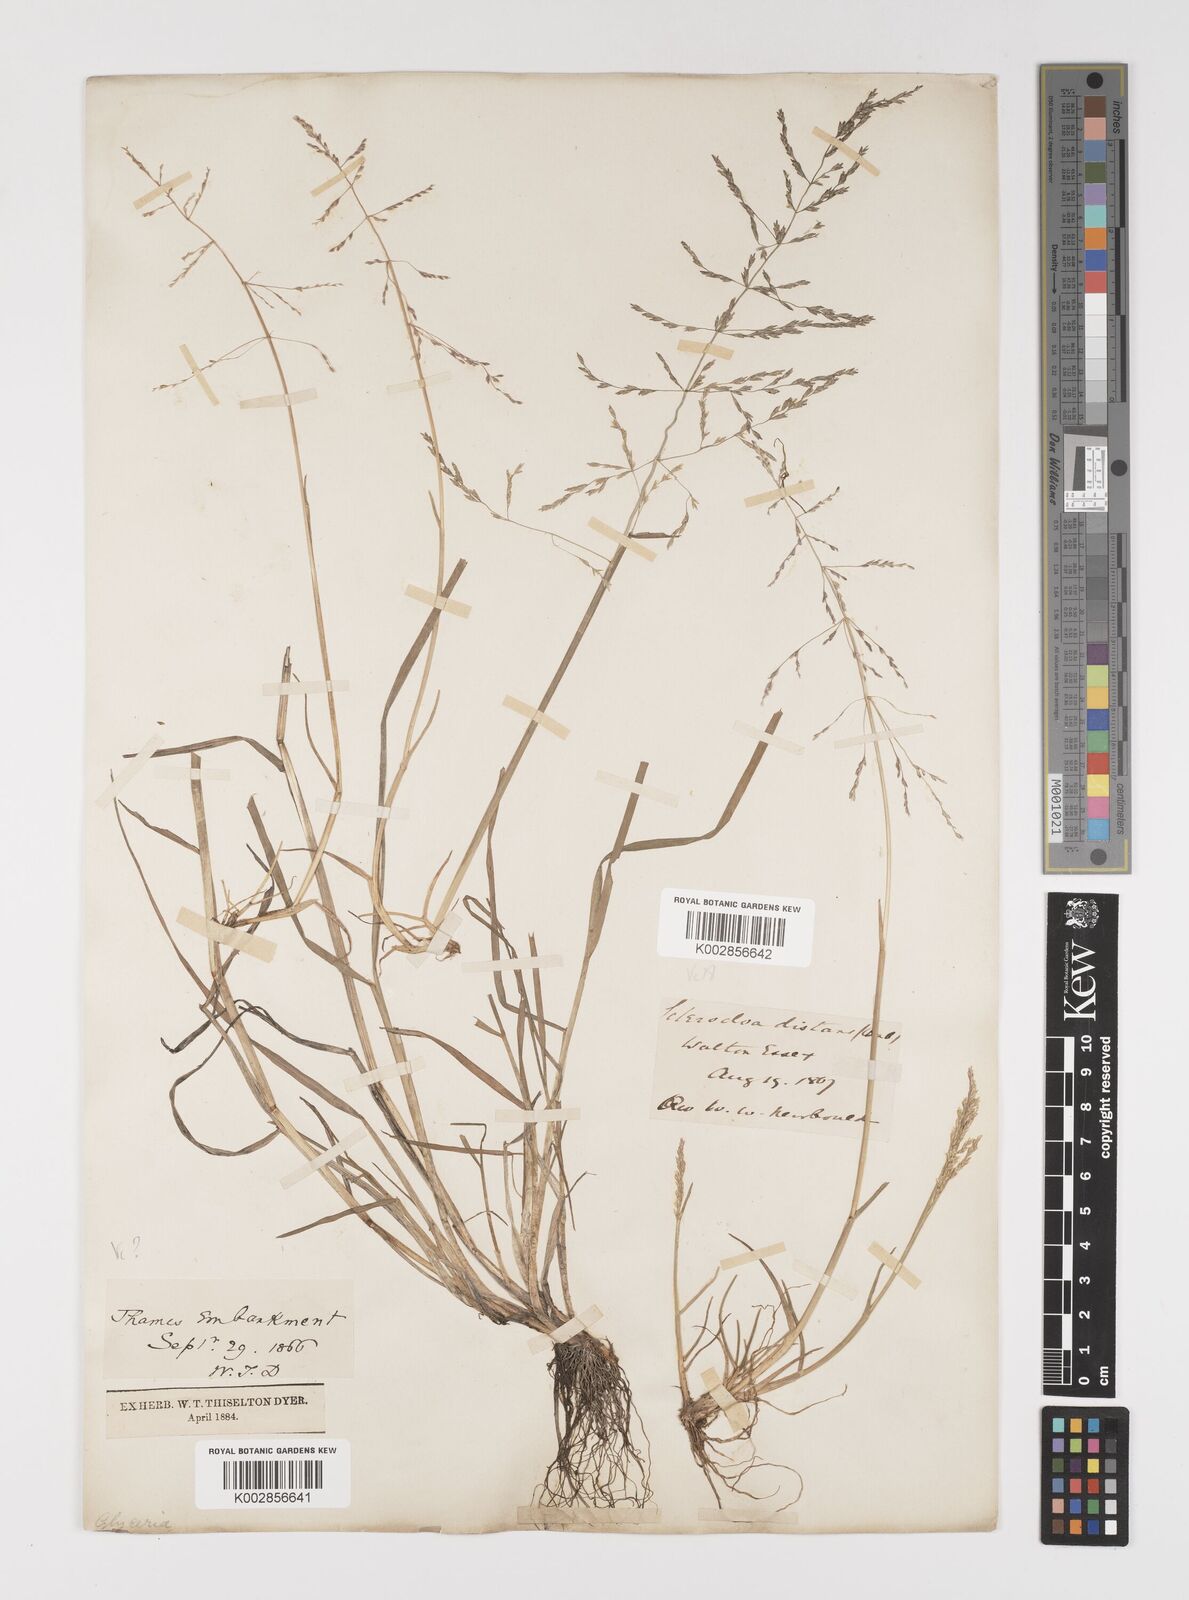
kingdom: Plantae
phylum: Tracheophyta
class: Liliopsida
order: Poales
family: Poaceae
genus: Puccinellia
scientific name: Puccinellia distans
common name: Weeping alkaligrass
